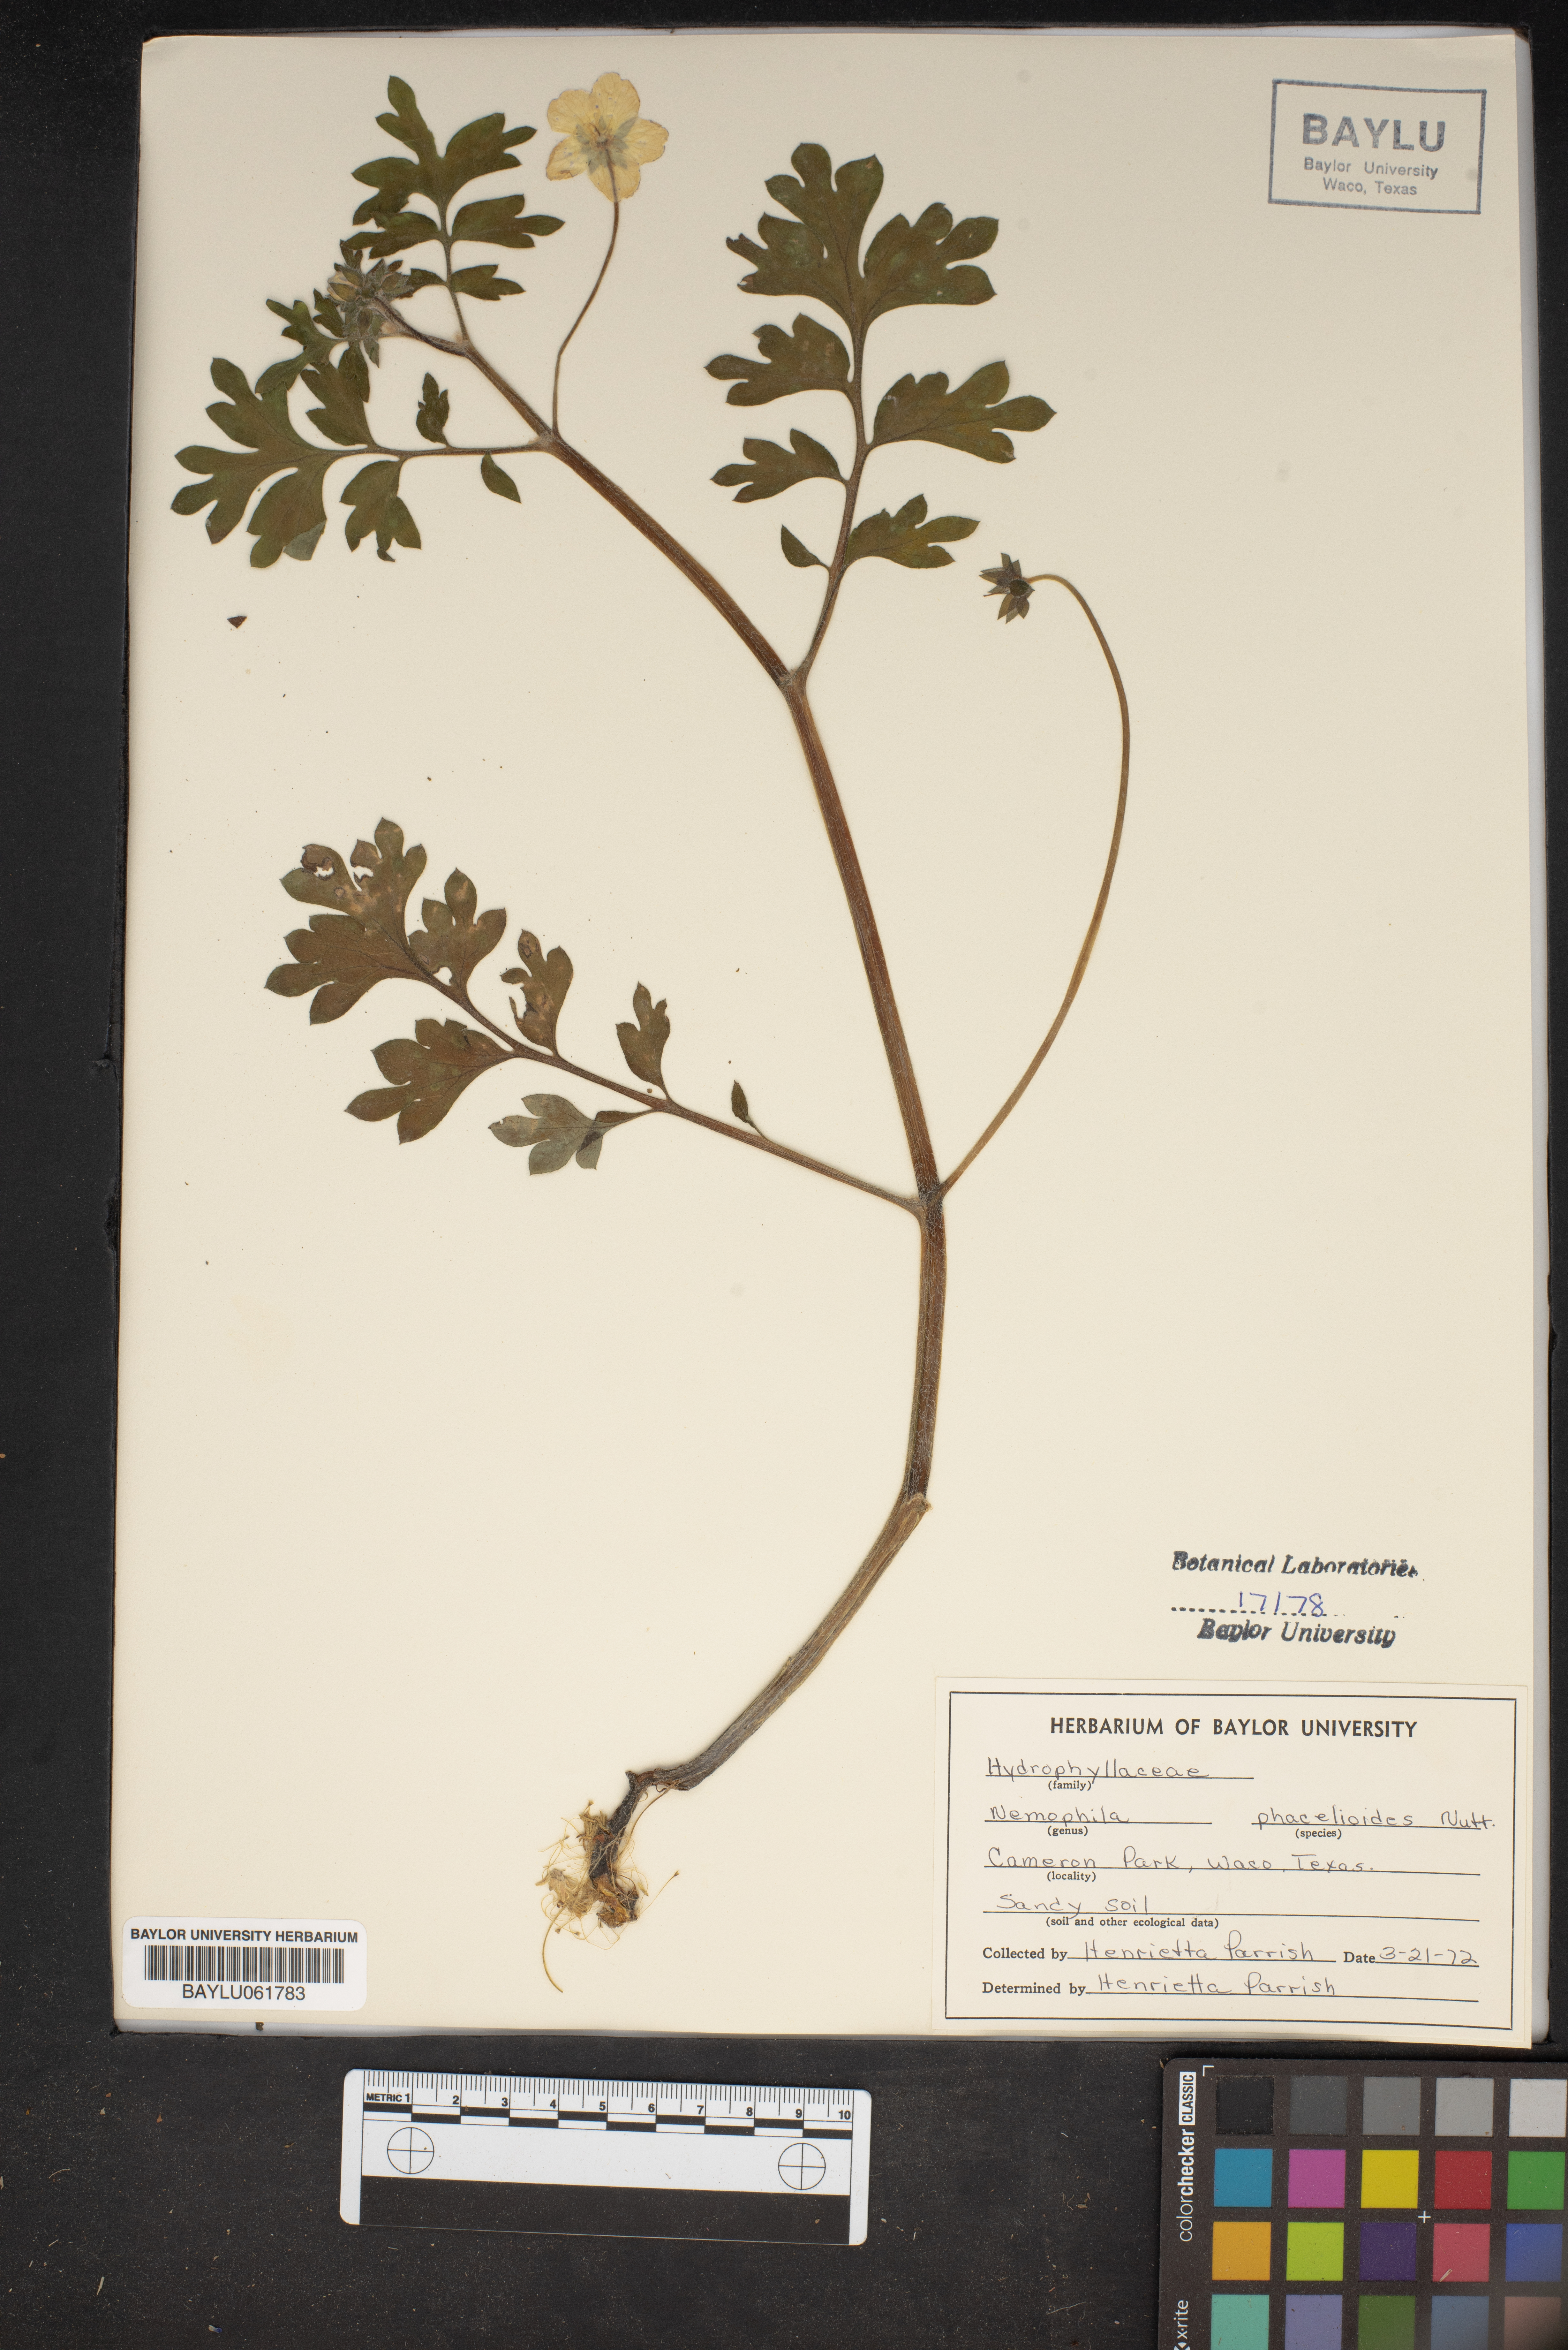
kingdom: Plantae
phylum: Tracheophyta
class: Magnoliopsida
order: Boraginales
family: Hydrophyllaceae
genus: Nemophila
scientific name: Nemophila phacelioides
